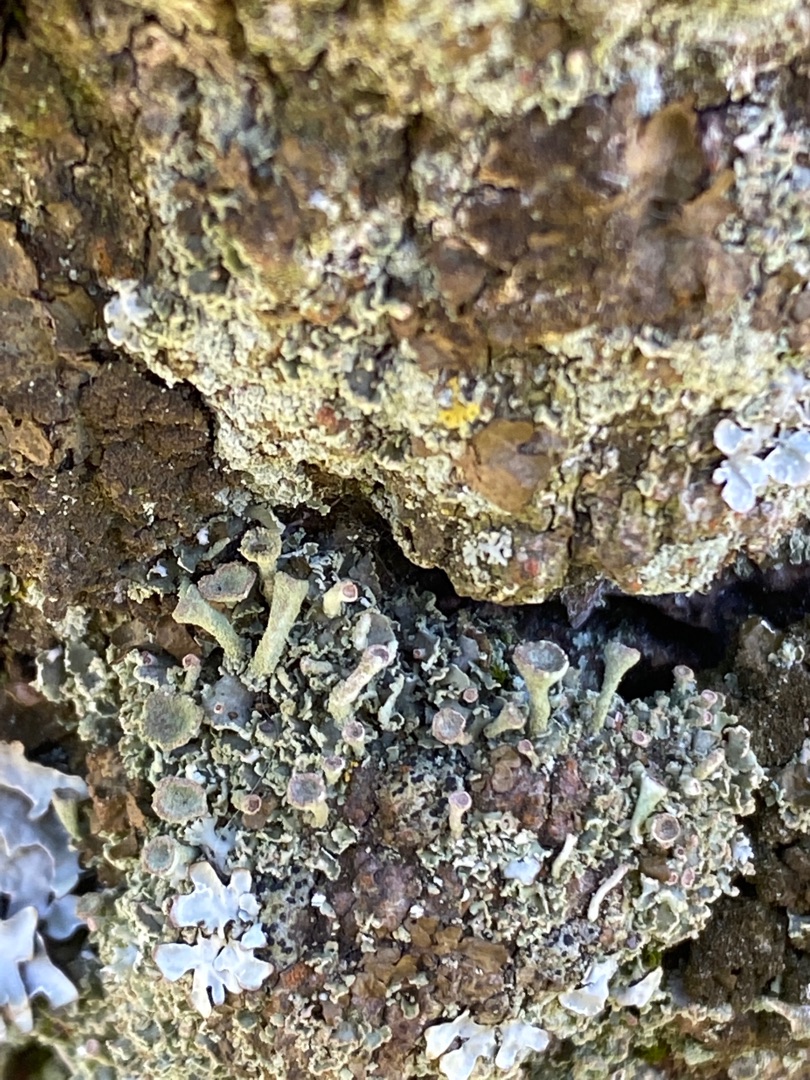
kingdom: Fungi
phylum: Ascomycota
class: Lecanoromycetes
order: Lecanorales
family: Cladoniaceae
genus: Cladonia
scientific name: Cladonia
